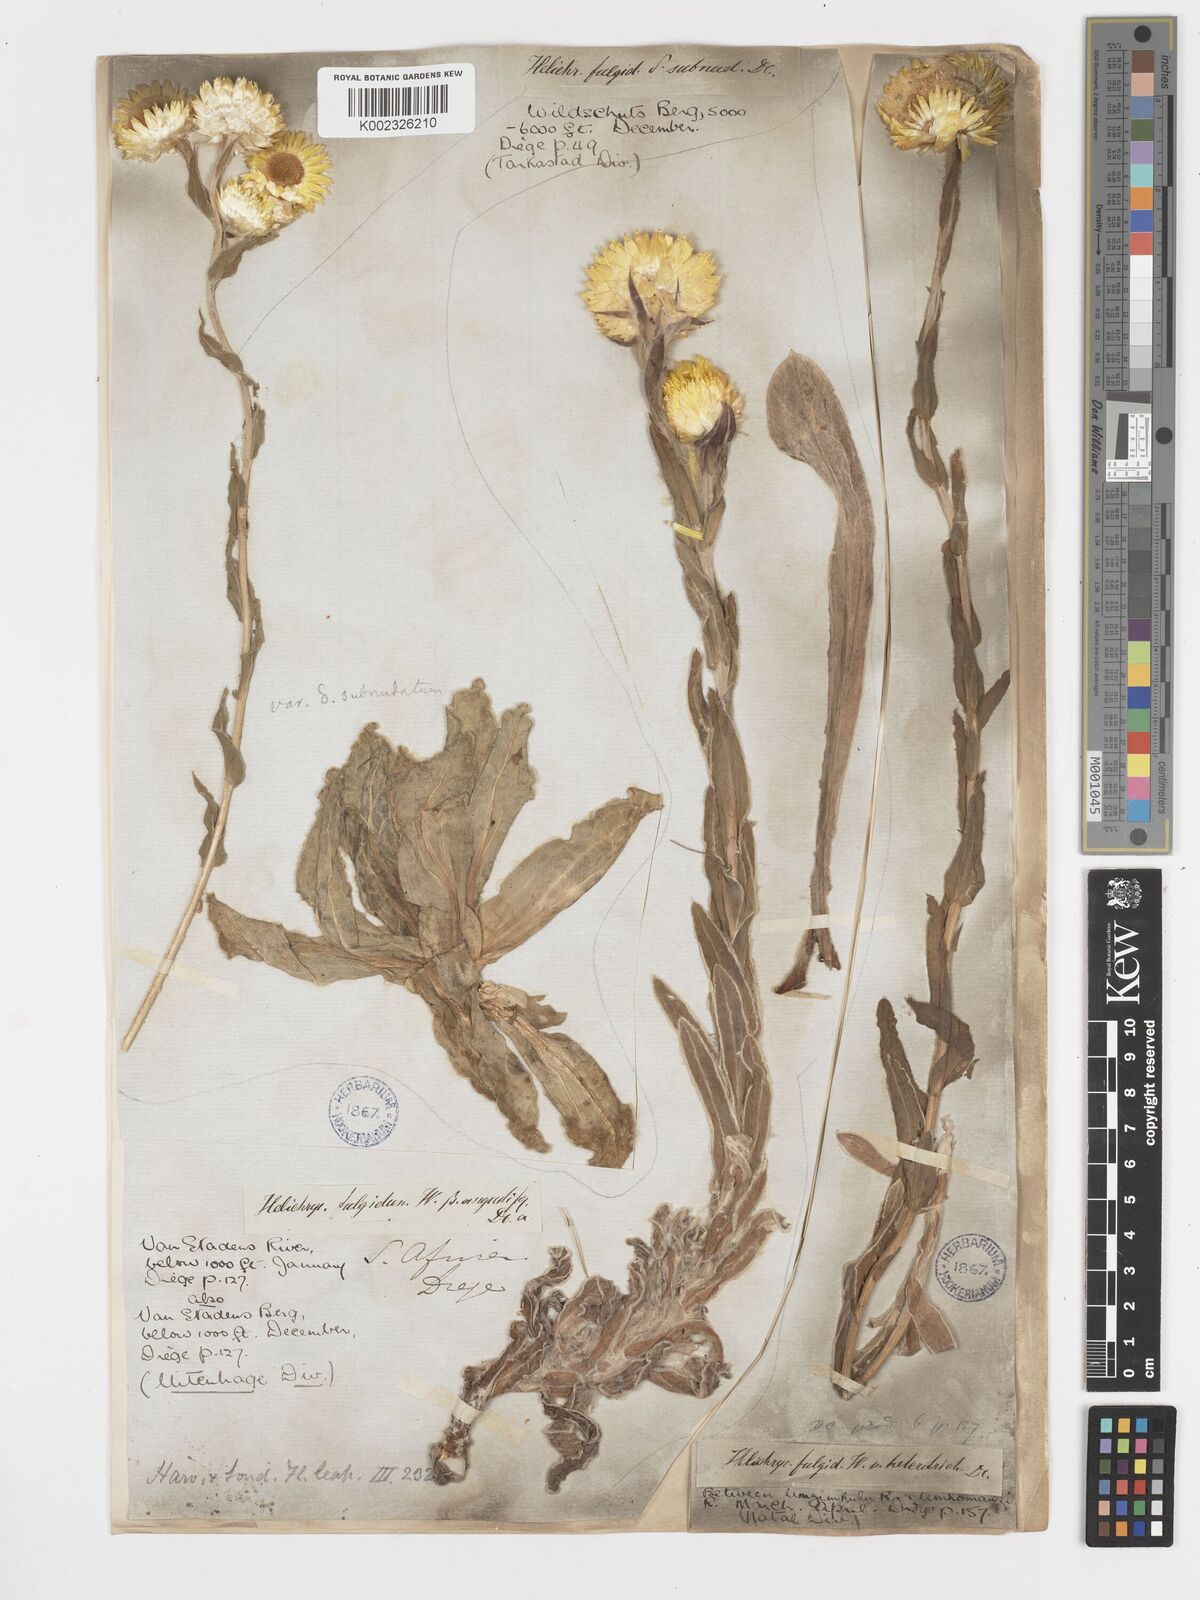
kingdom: Plantae
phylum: Tracheophyta
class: Magnoliopsida
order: Asterales
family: Asteraceae
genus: Helichrysum
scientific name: Helichrysum aureum
